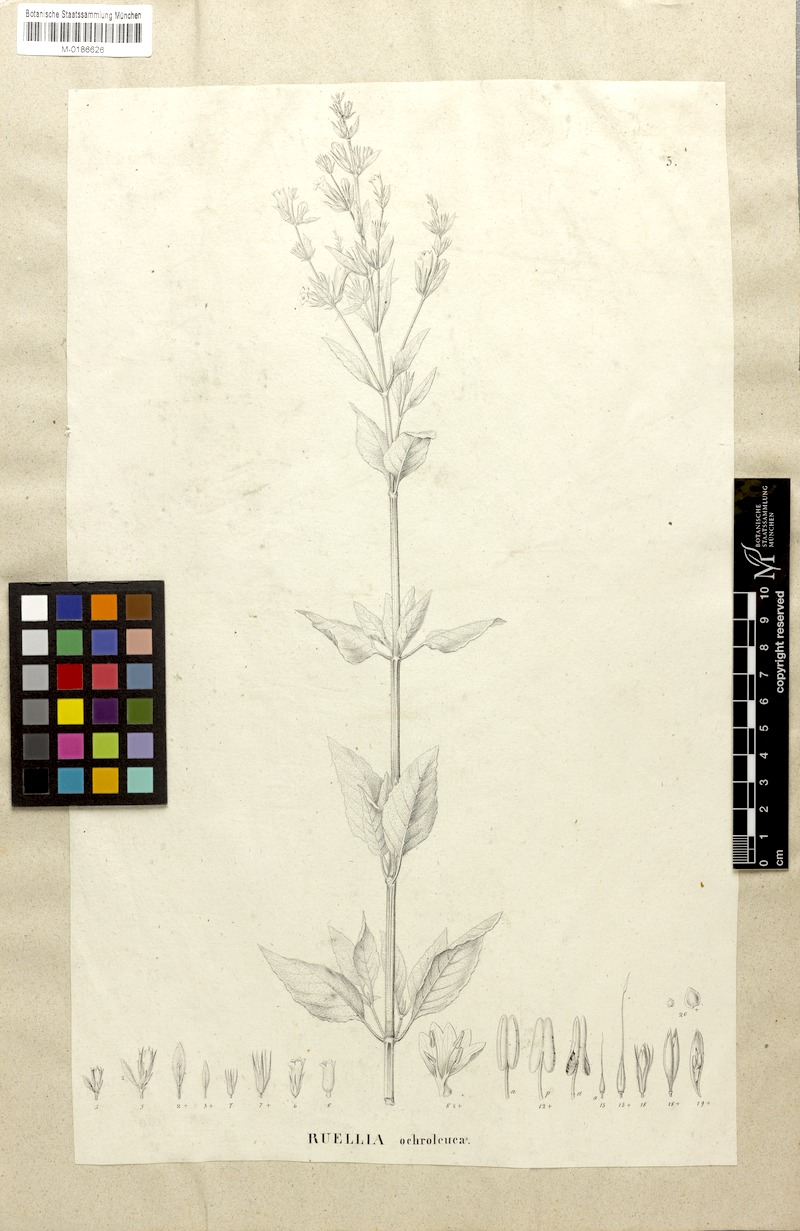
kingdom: Plantae
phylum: Tracheophyta
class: Magnoliopsida
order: Lamiales
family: Acanthaceae
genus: Ruellia
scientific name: Ruellia ochroleuca
